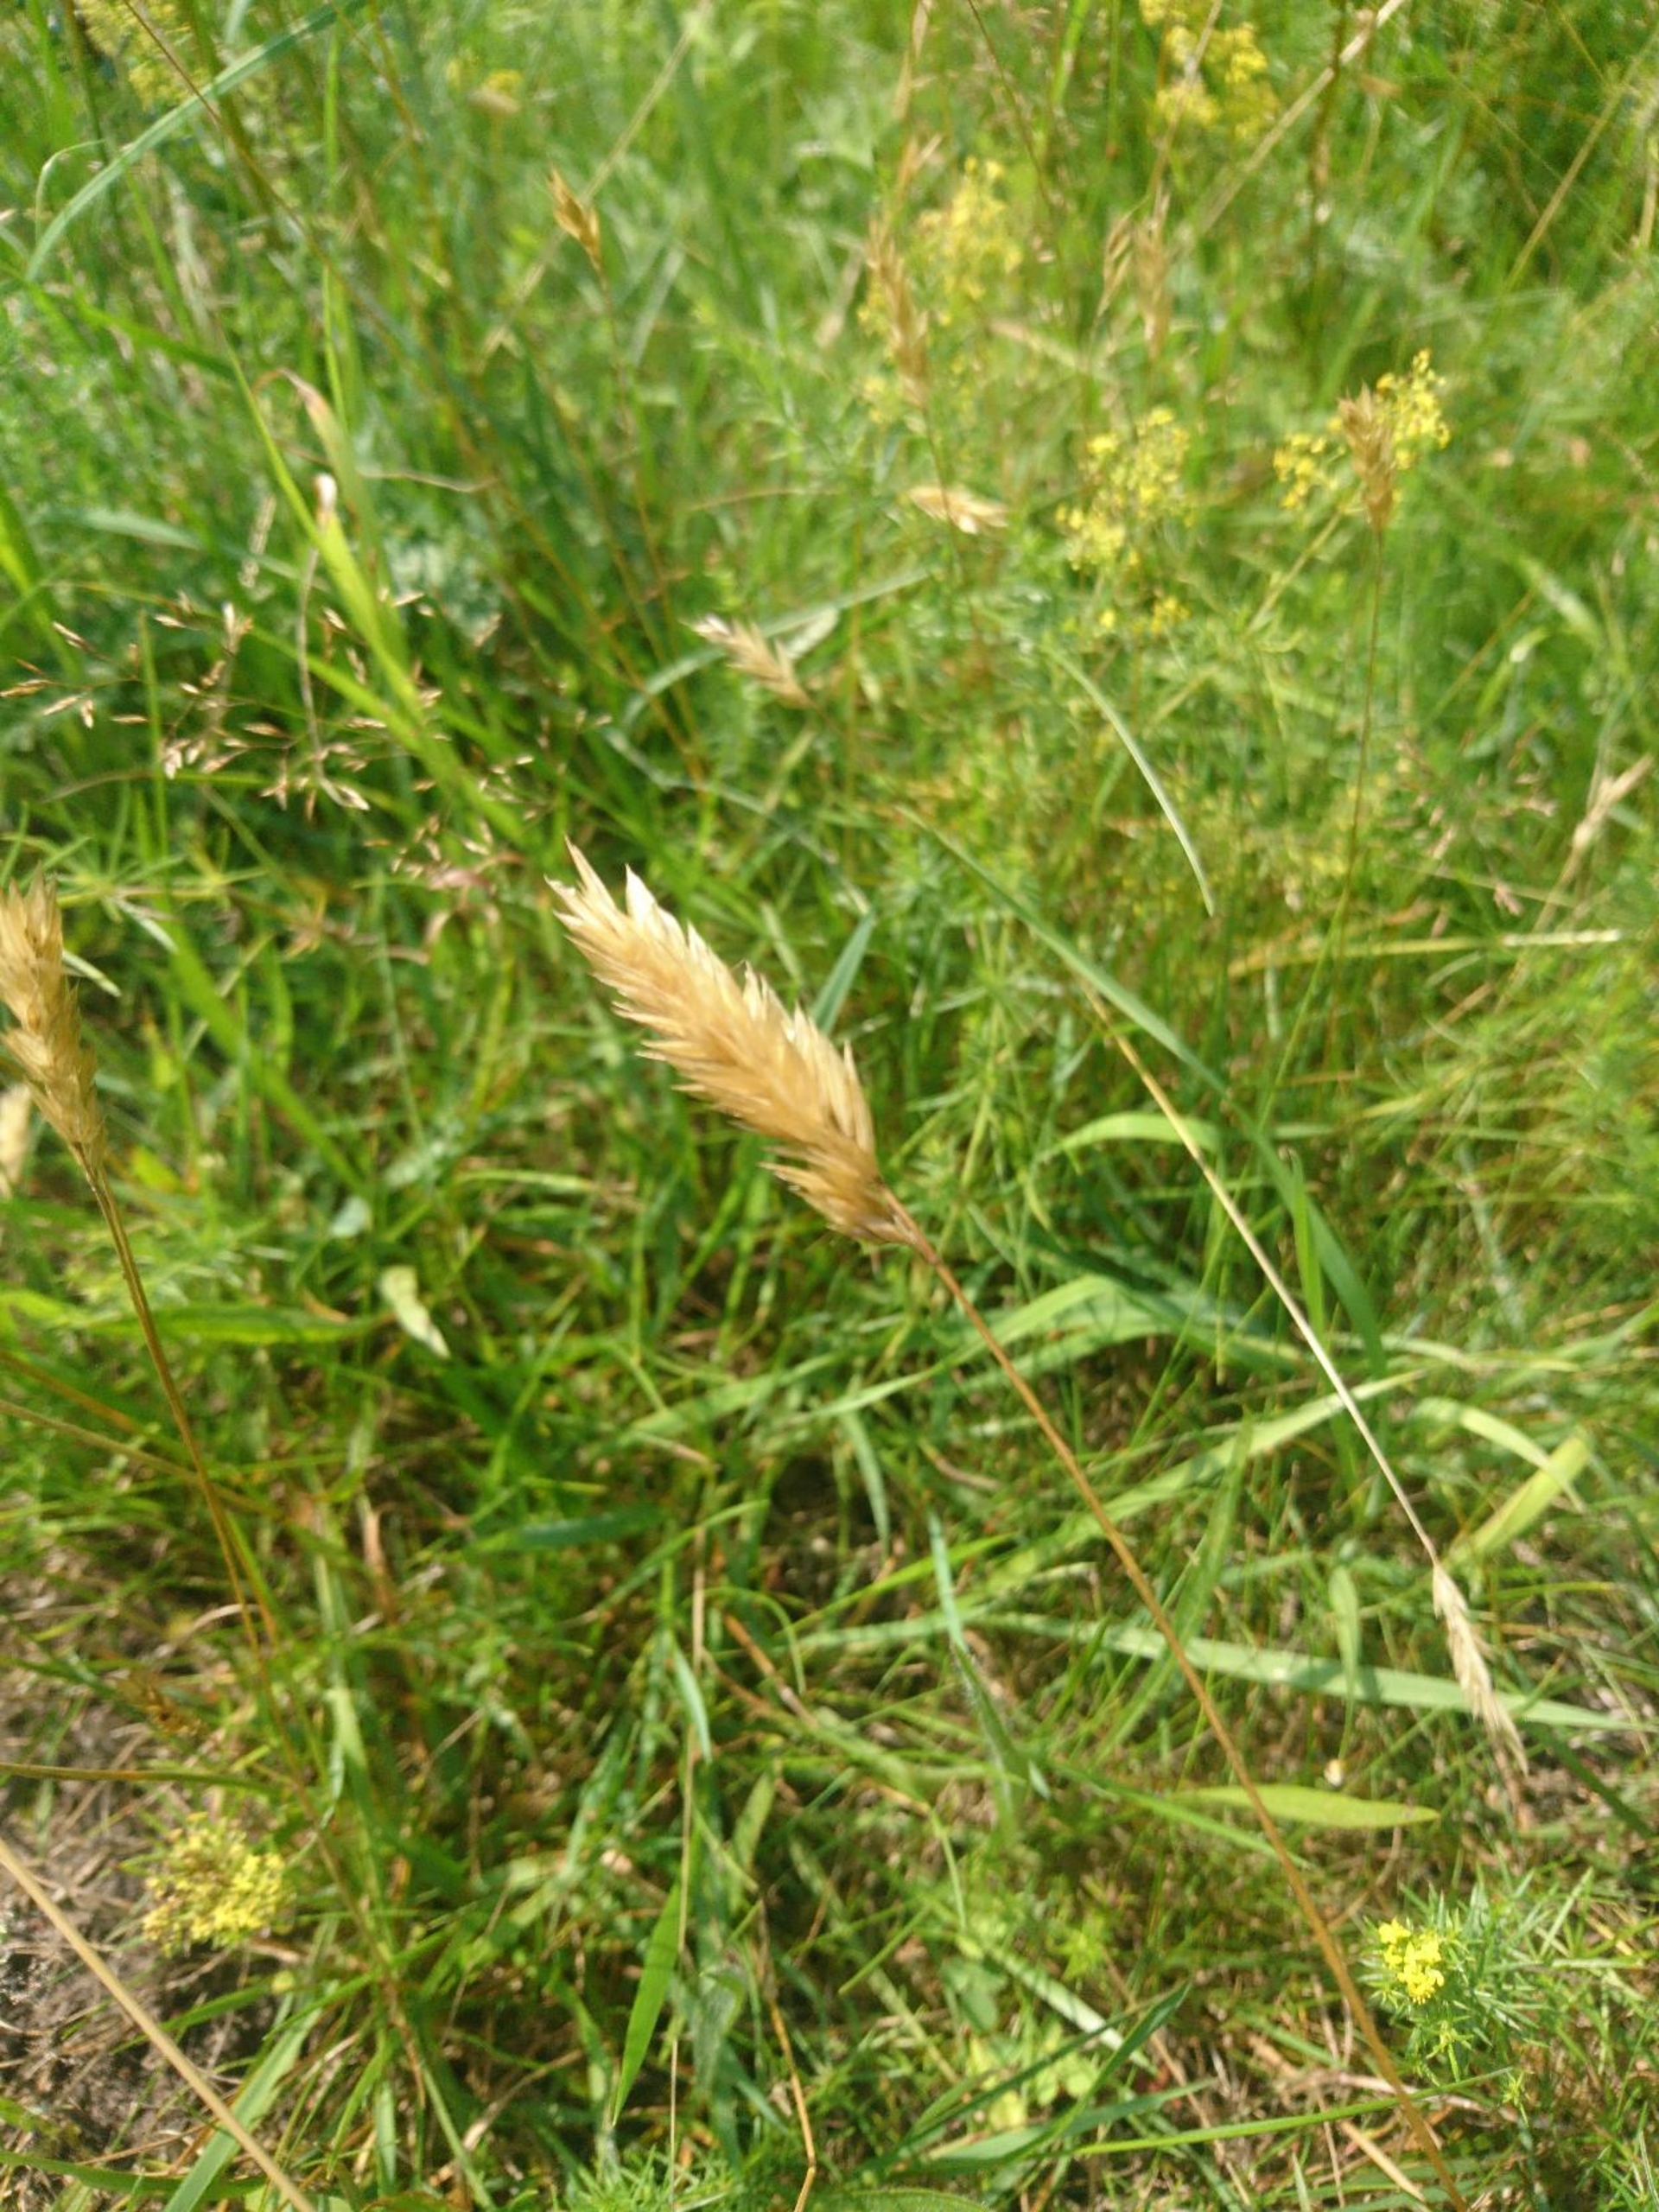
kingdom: Plantae
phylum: Tracheophyta
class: Liliopsida
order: Poales
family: Poaceae
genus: Anthoxanthum
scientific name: Anthoxanthum odoratum
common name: Vellugtende gulaks
